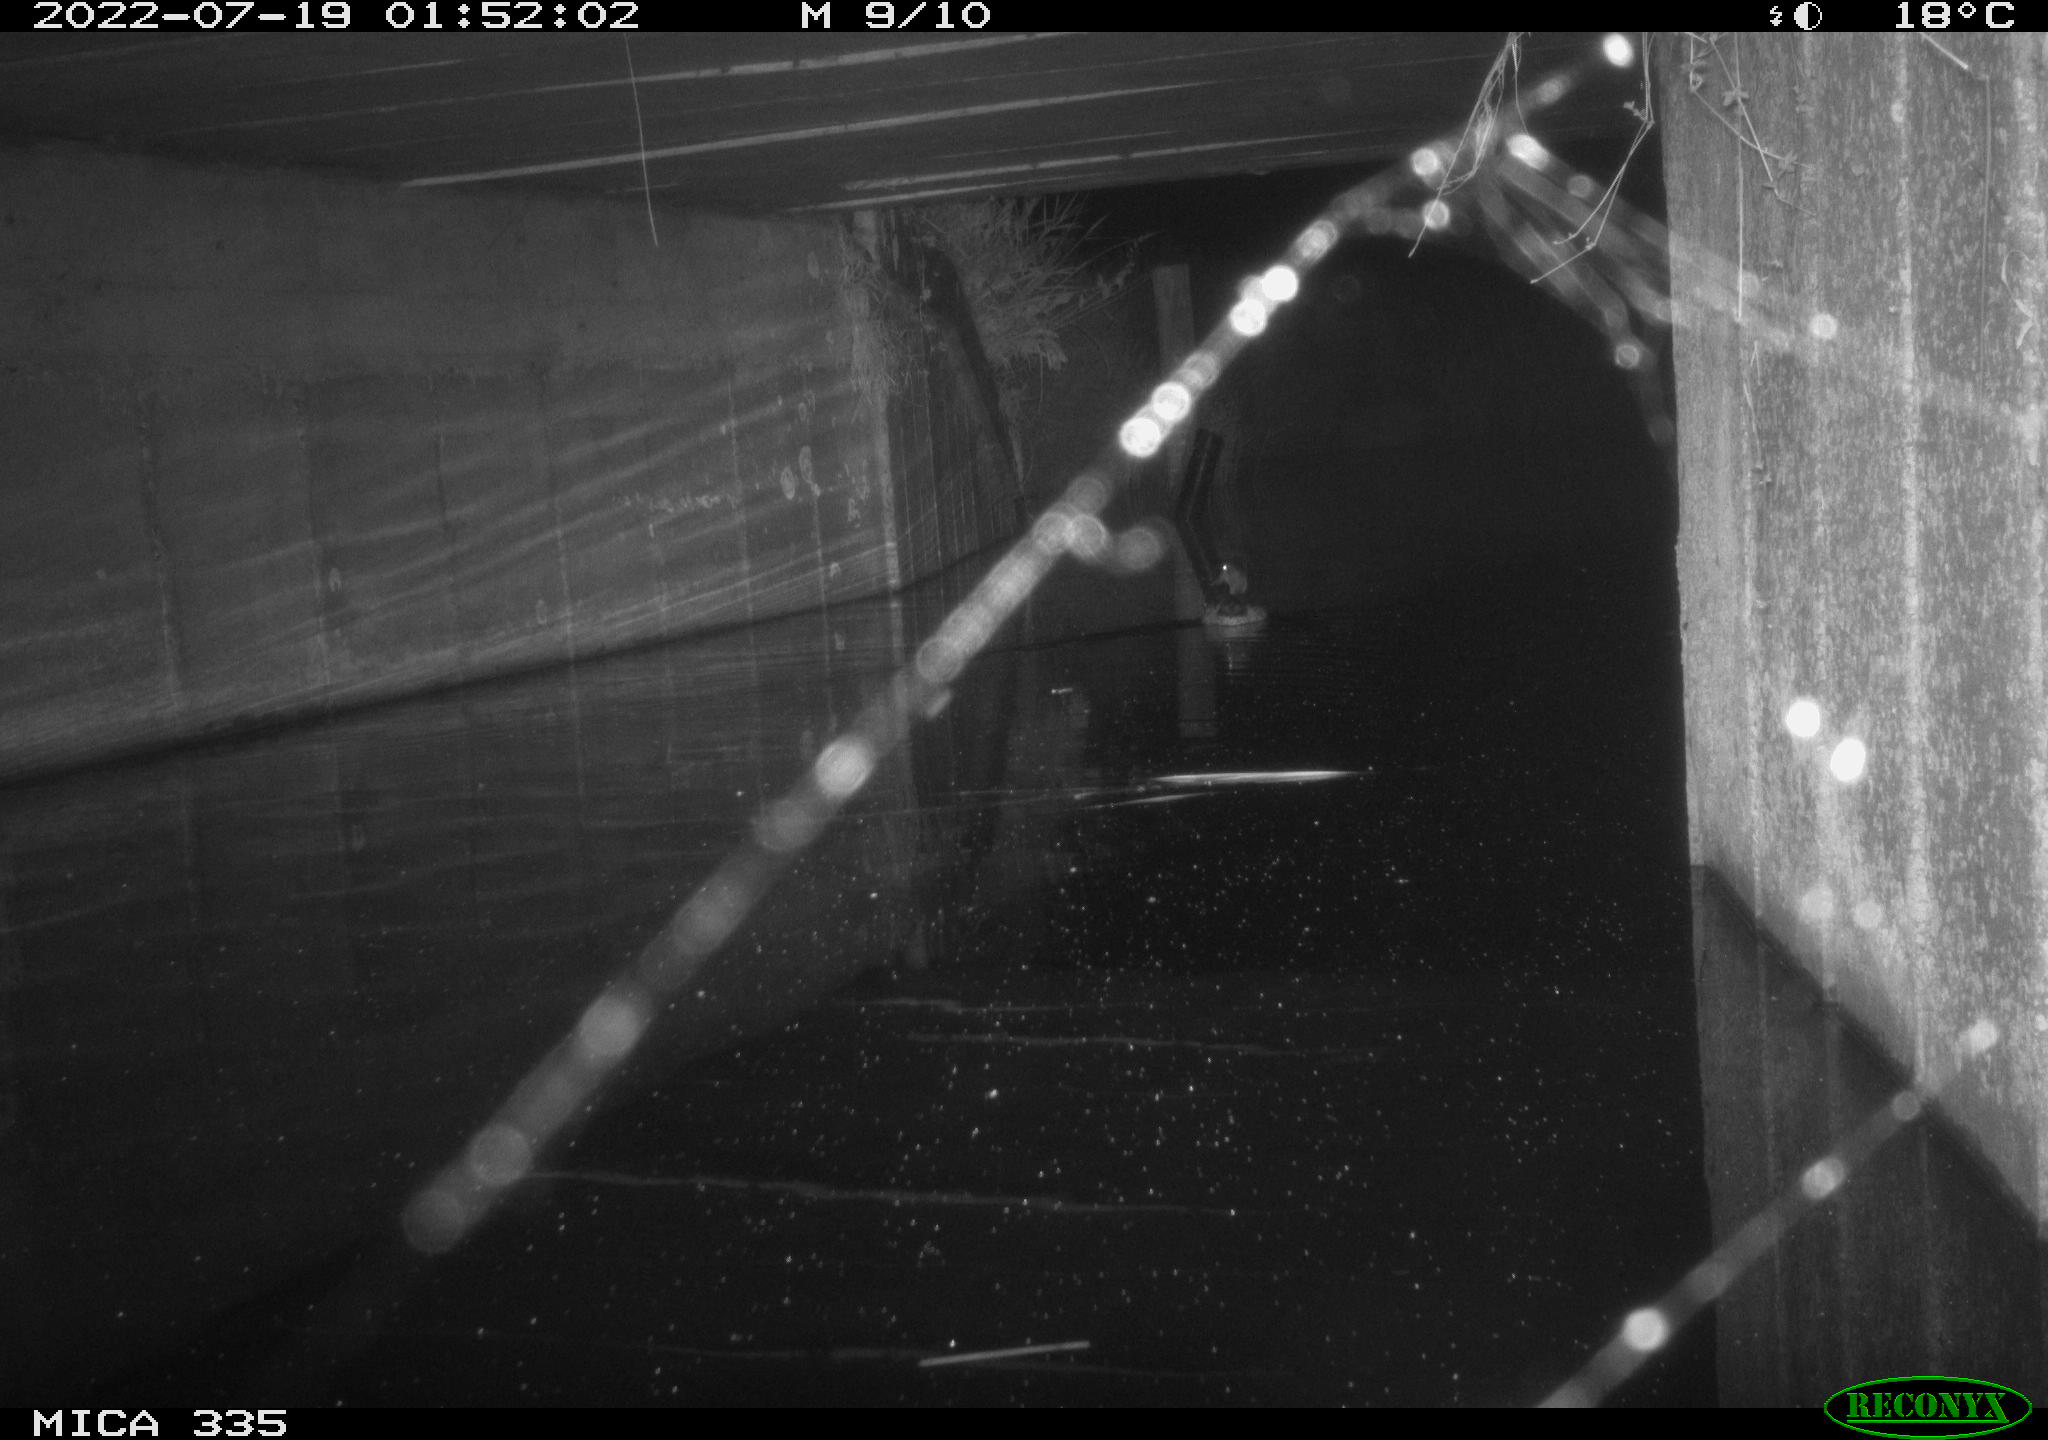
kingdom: Animalia
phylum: Chordata
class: Aves
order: Anseriformes
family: Anatidae
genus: Anas
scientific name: Anas platyrhynchos
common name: Mallard
